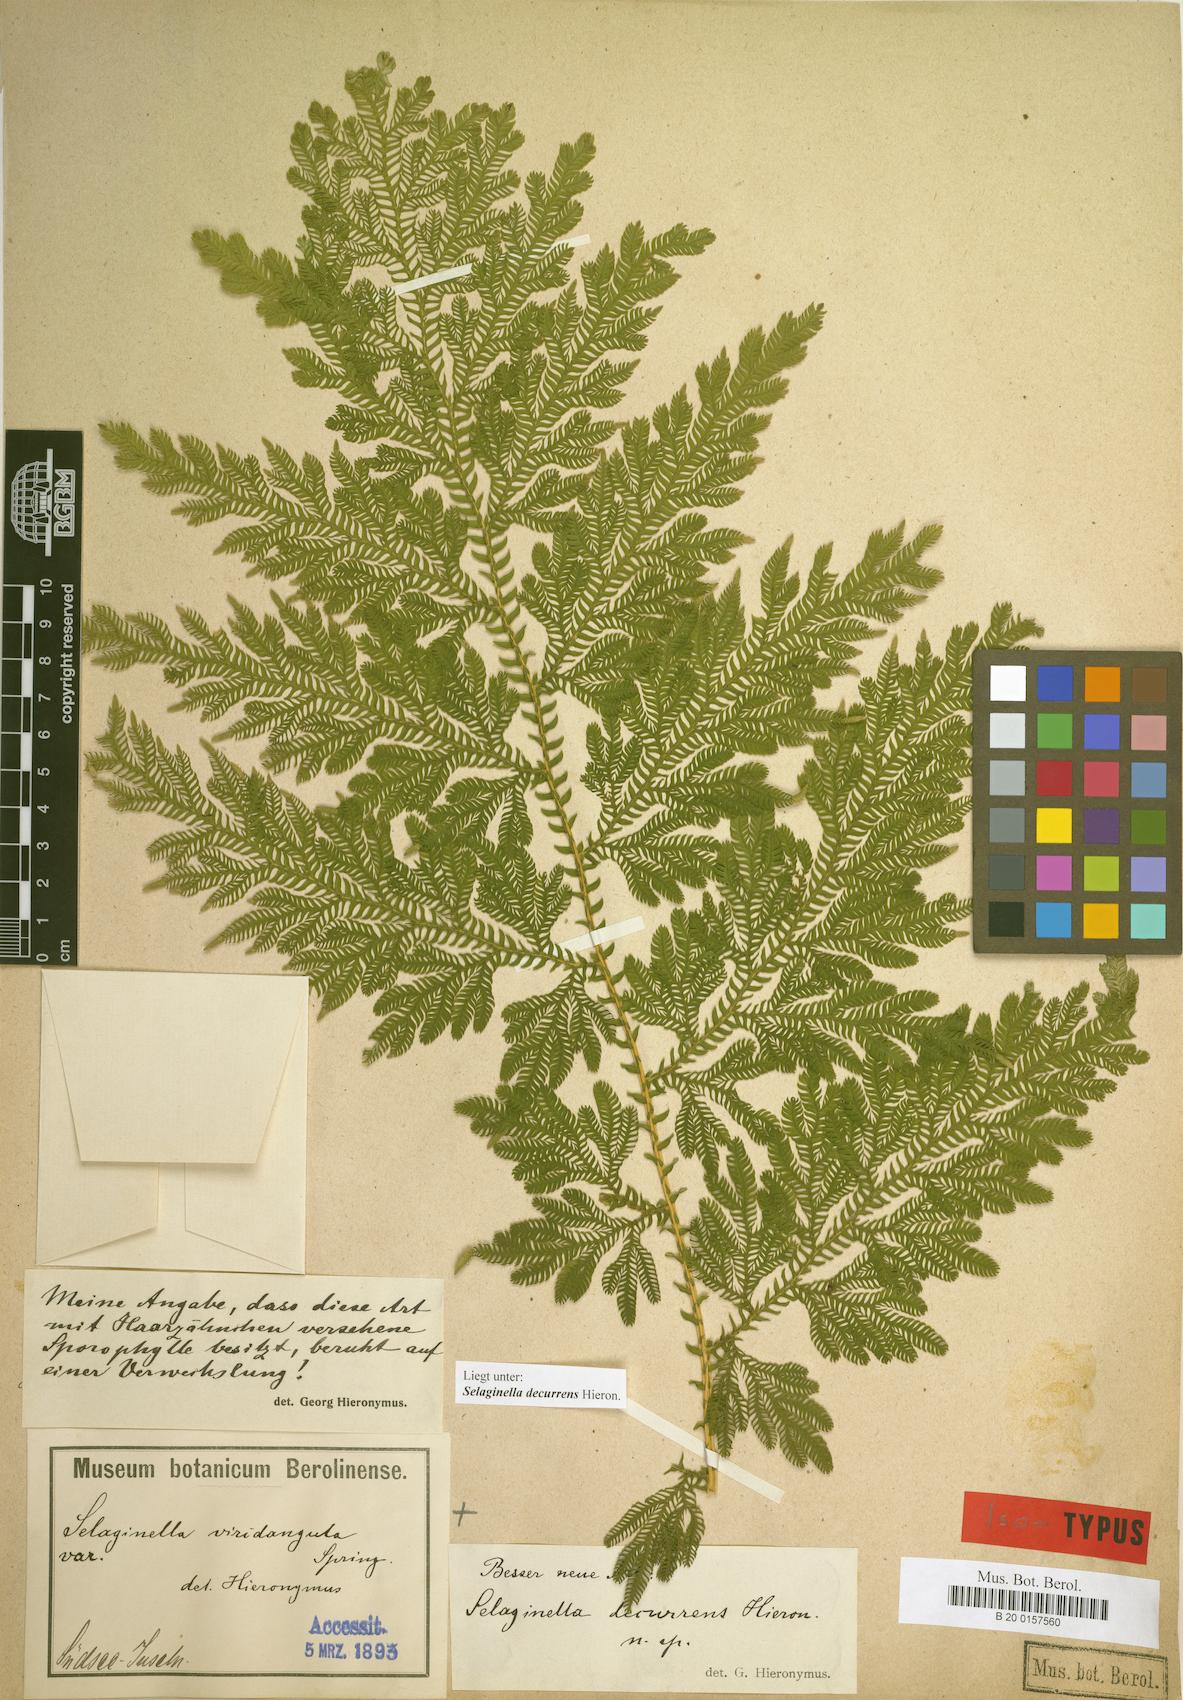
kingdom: Plantae
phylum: Tracheophyta
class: Lycopodiopsida
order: Selaginellales
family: Selaginellaceae
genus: Selaginella
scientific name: Selaginella decurrens
